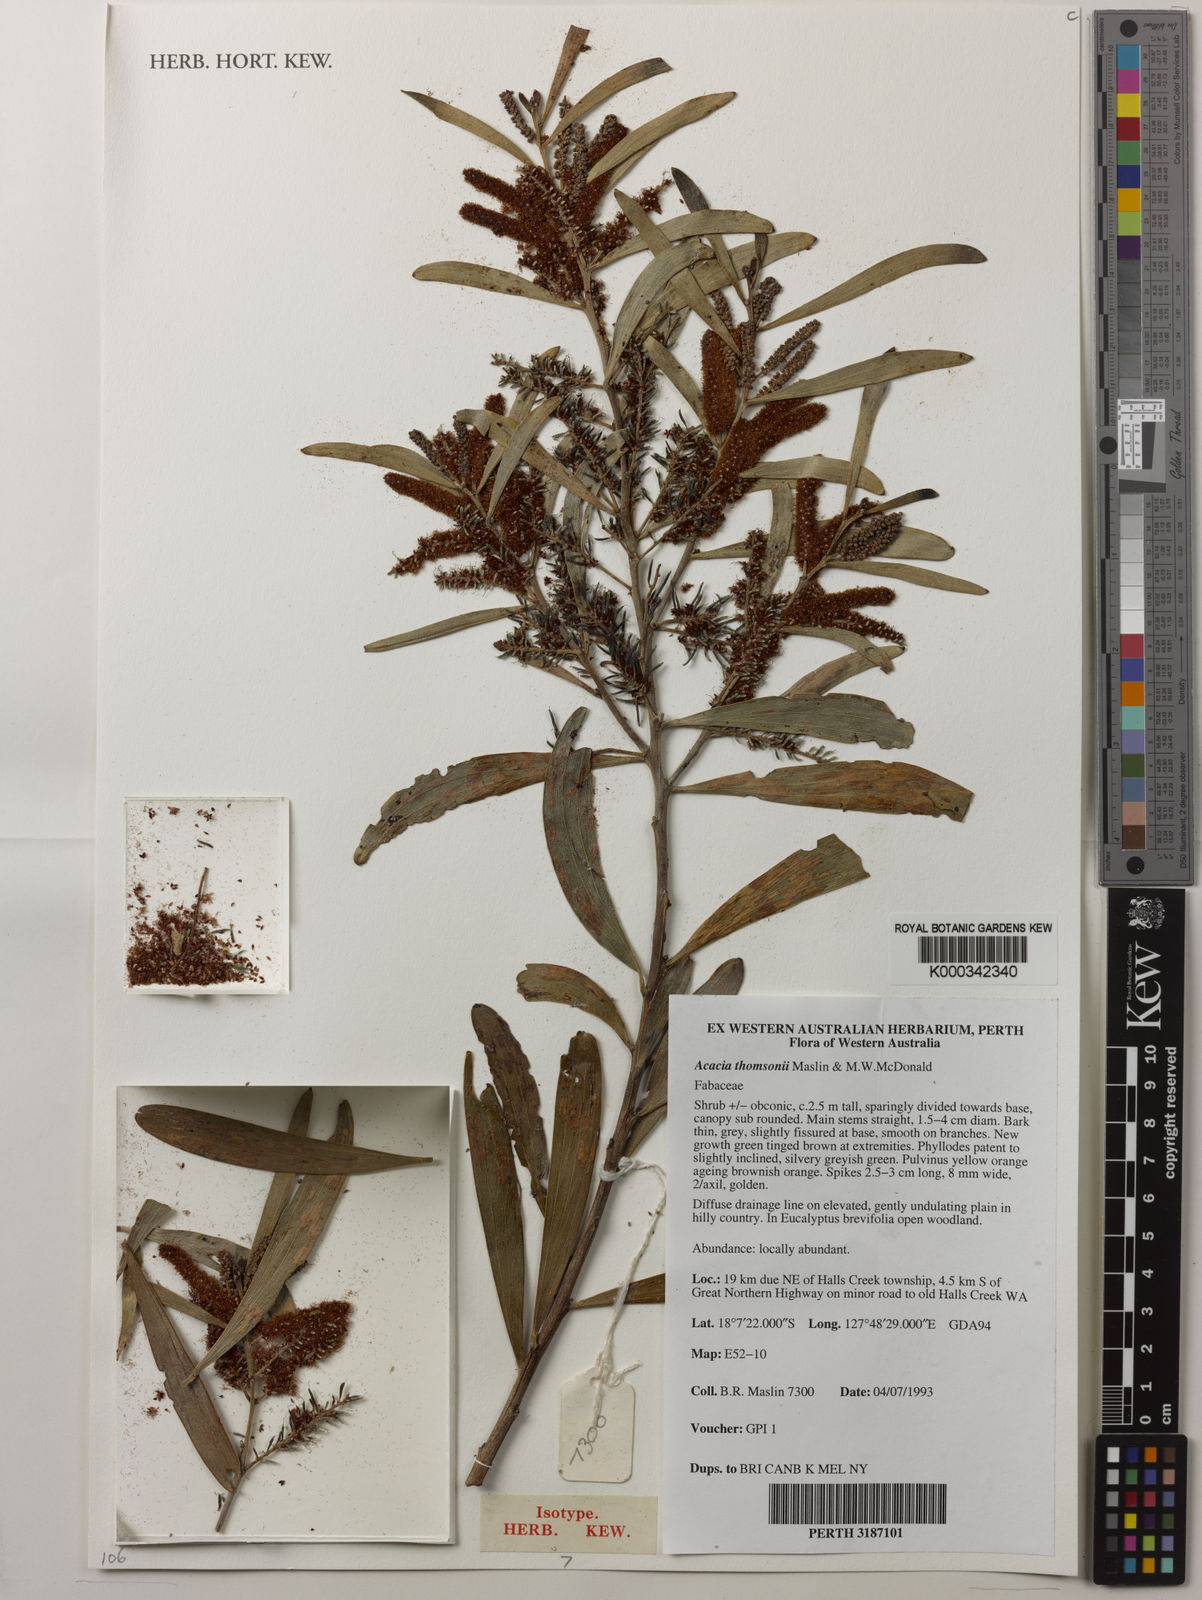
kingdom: Plantae
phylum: Tracheophyta
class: Magnoliopsida
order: Fabales
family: Fabaceae
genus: Acacia
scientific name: Acacia thomsonii
